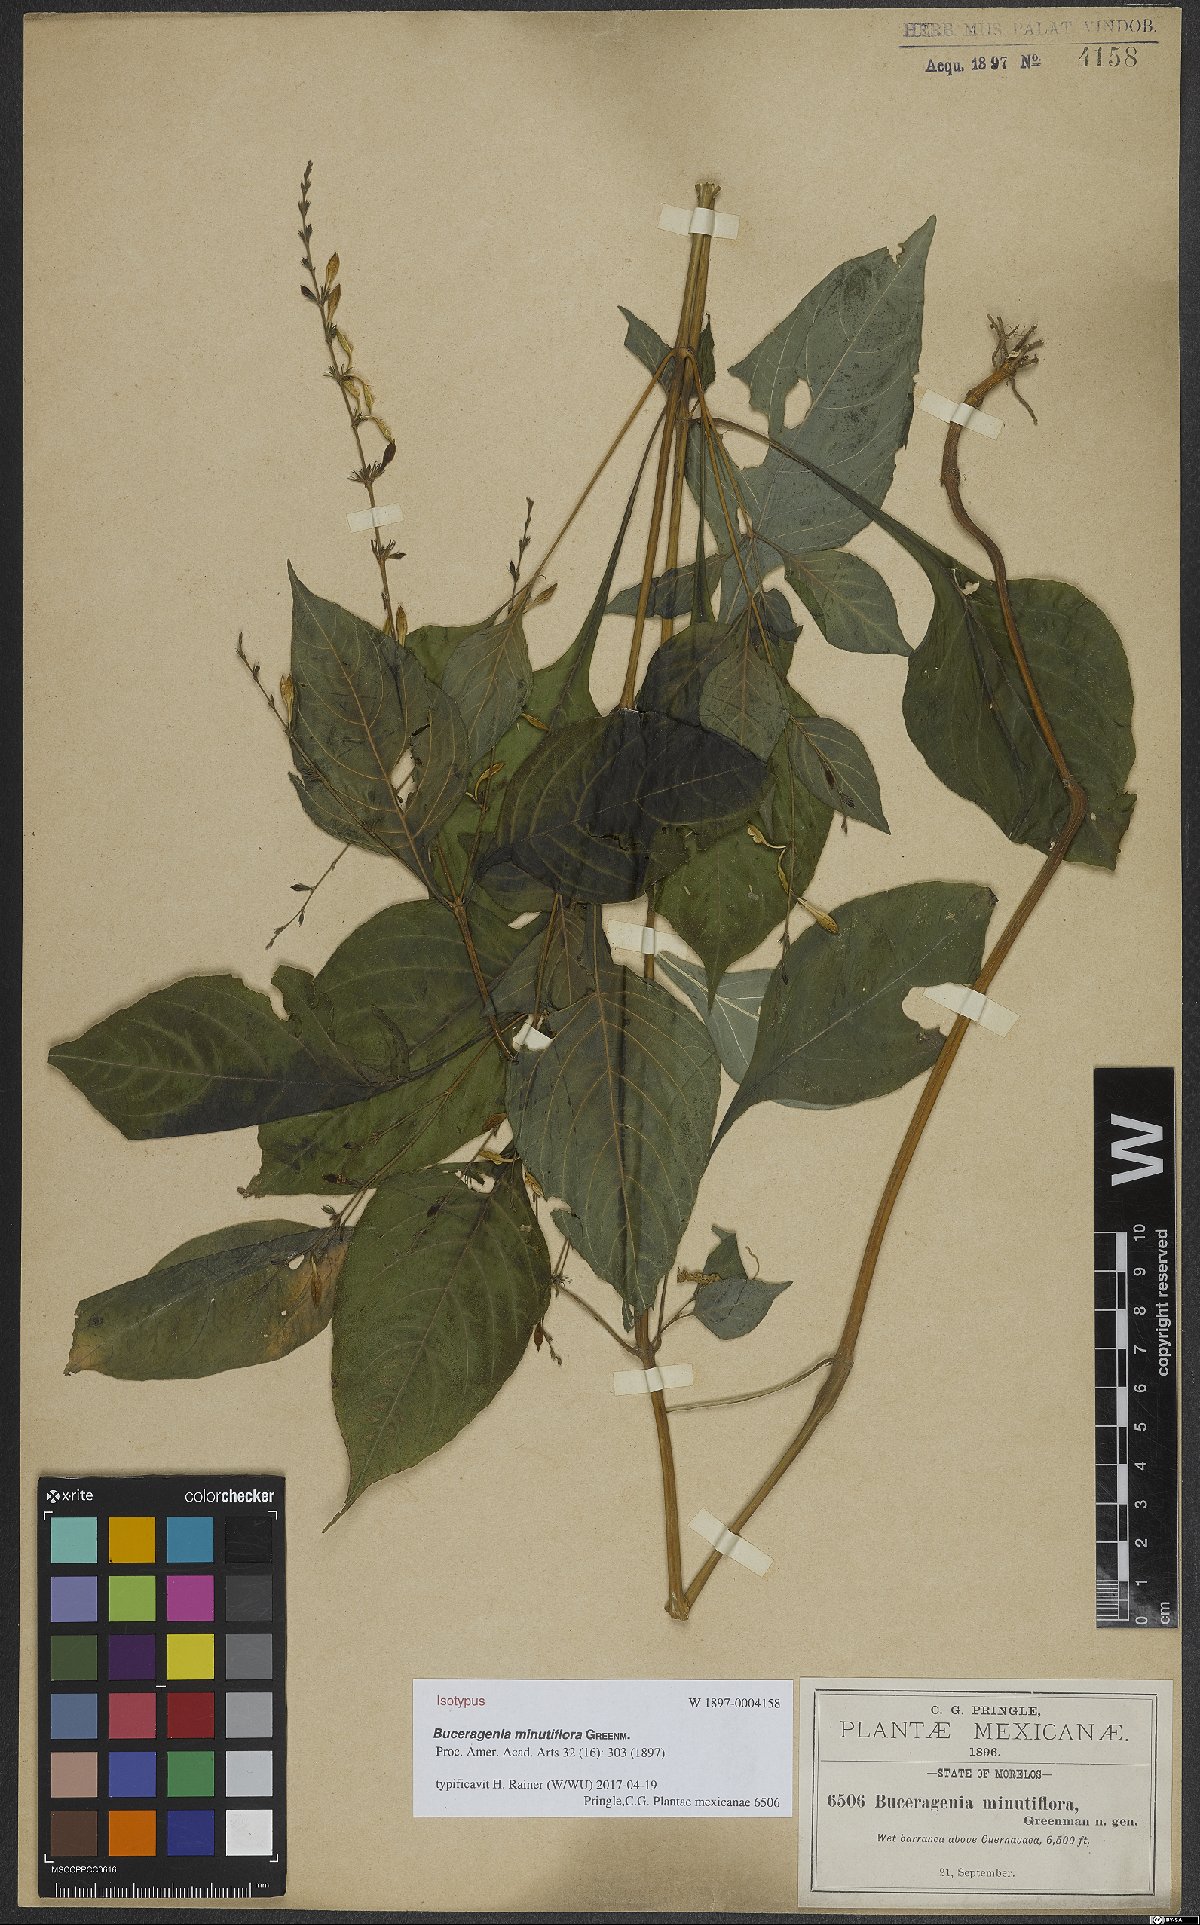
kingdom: Plantae
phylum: Tracheophyta
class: Magnoliopsida
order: Lamiales
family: Acanthaceae
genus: Pseuderanthemum
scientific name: Pseuderanthemum Buceragenia minutiflora
